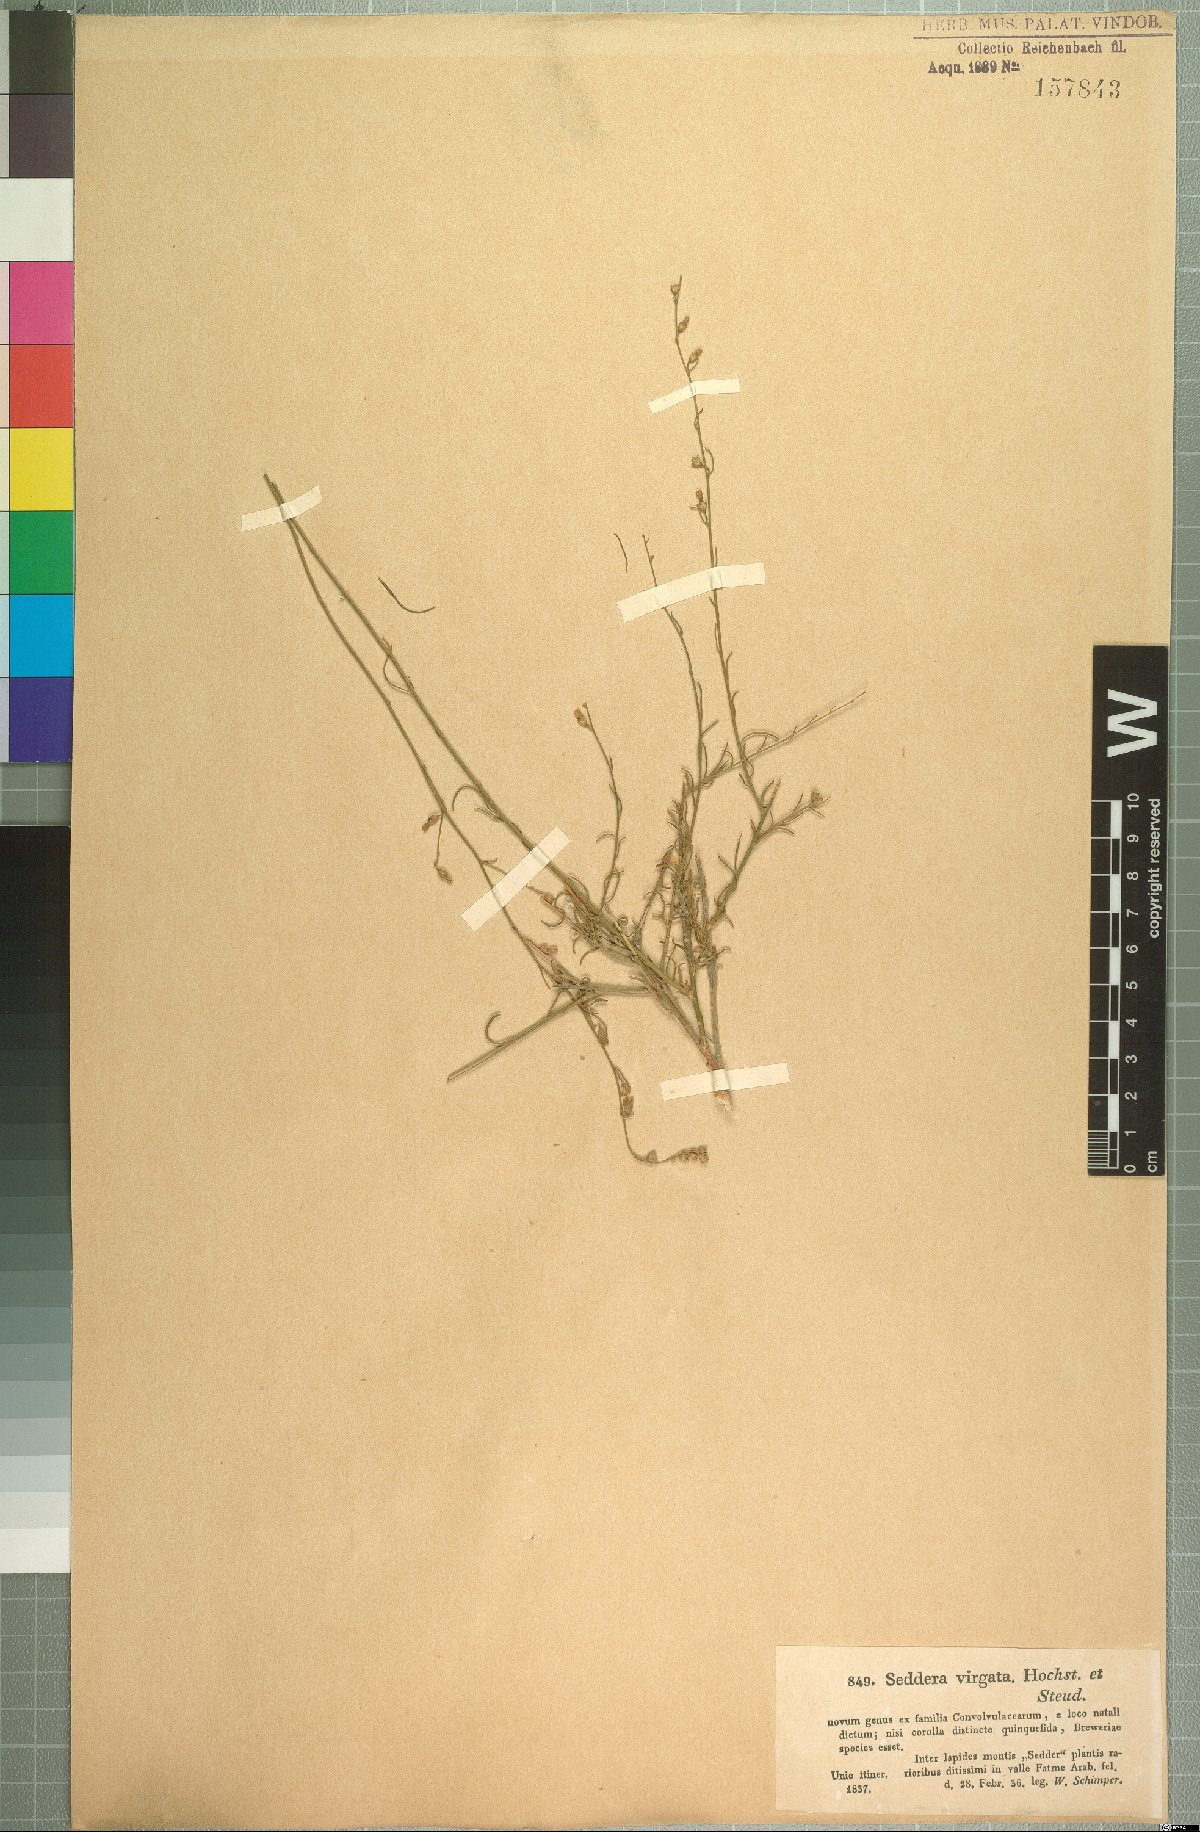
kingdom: Plantae
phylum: Tracheophyta
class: Magnoliopsida
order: Solanales
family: Convolvulaceae
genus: Seddera
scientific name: Seddera virgata
